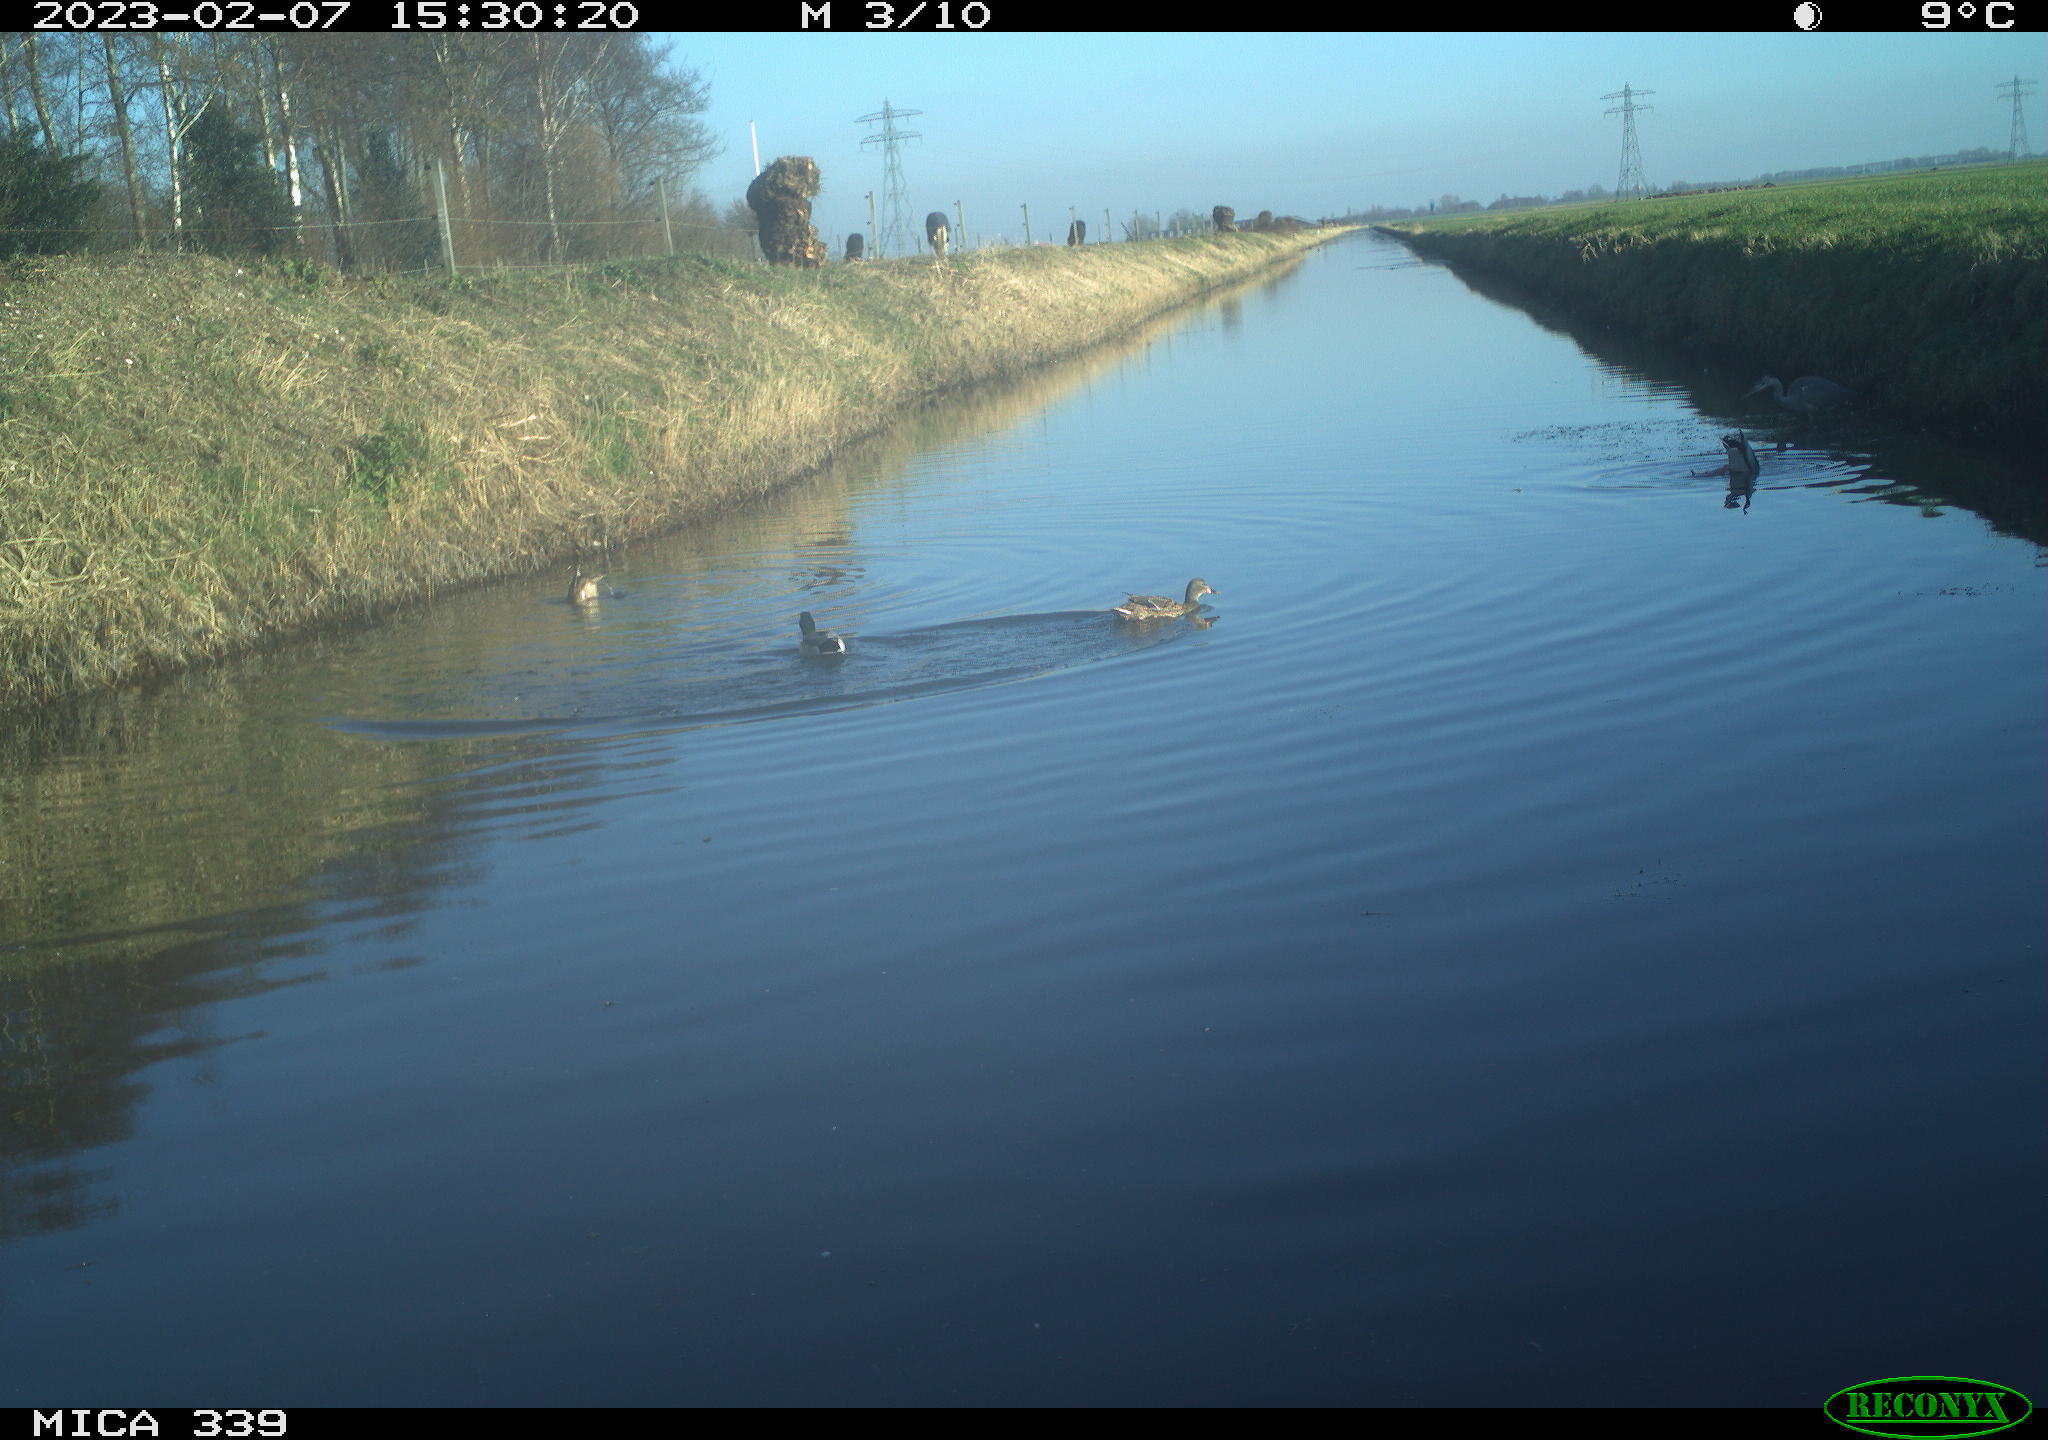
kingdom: Animalia
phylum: Chordata
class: Aves
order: Anseriformes
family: Anatidae
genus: Anas
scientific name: Anas platyrhynchos
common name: Mallard
